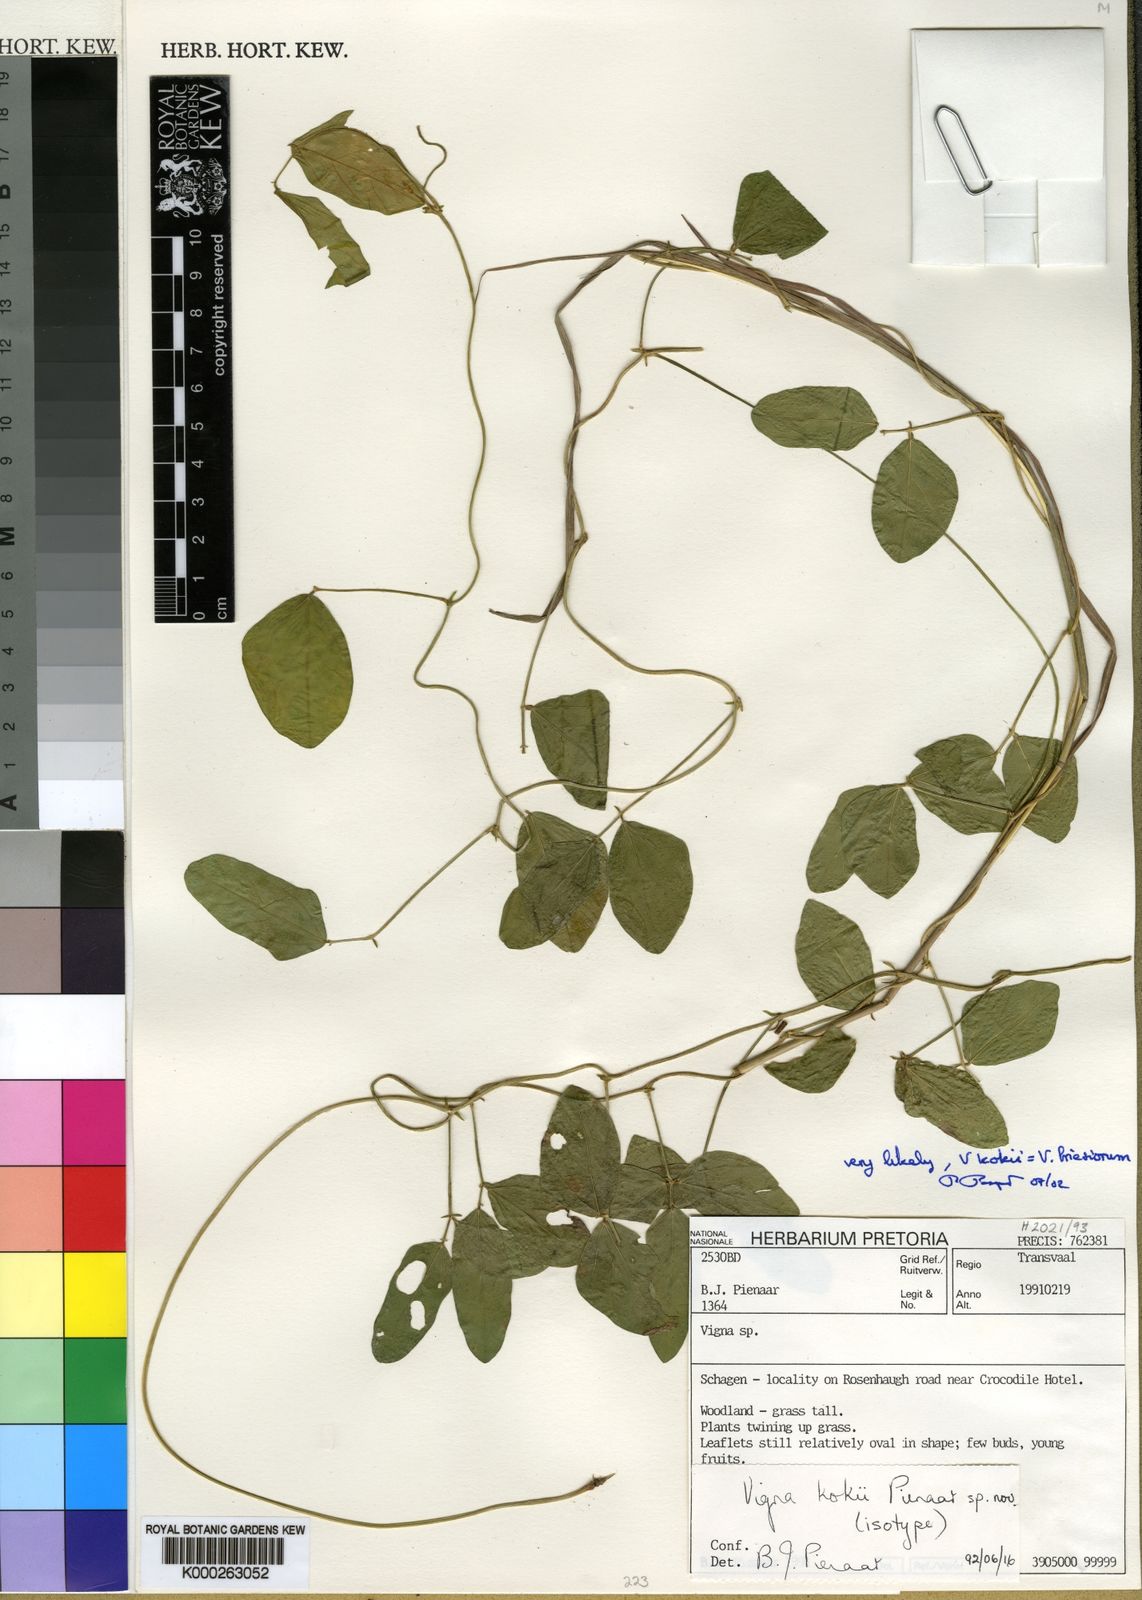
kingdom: Plantae
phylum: Tracheophyta
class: Magnoliopsida
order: Fabales
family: Fabaceae
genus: Vigna
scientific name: Vigna kokii
